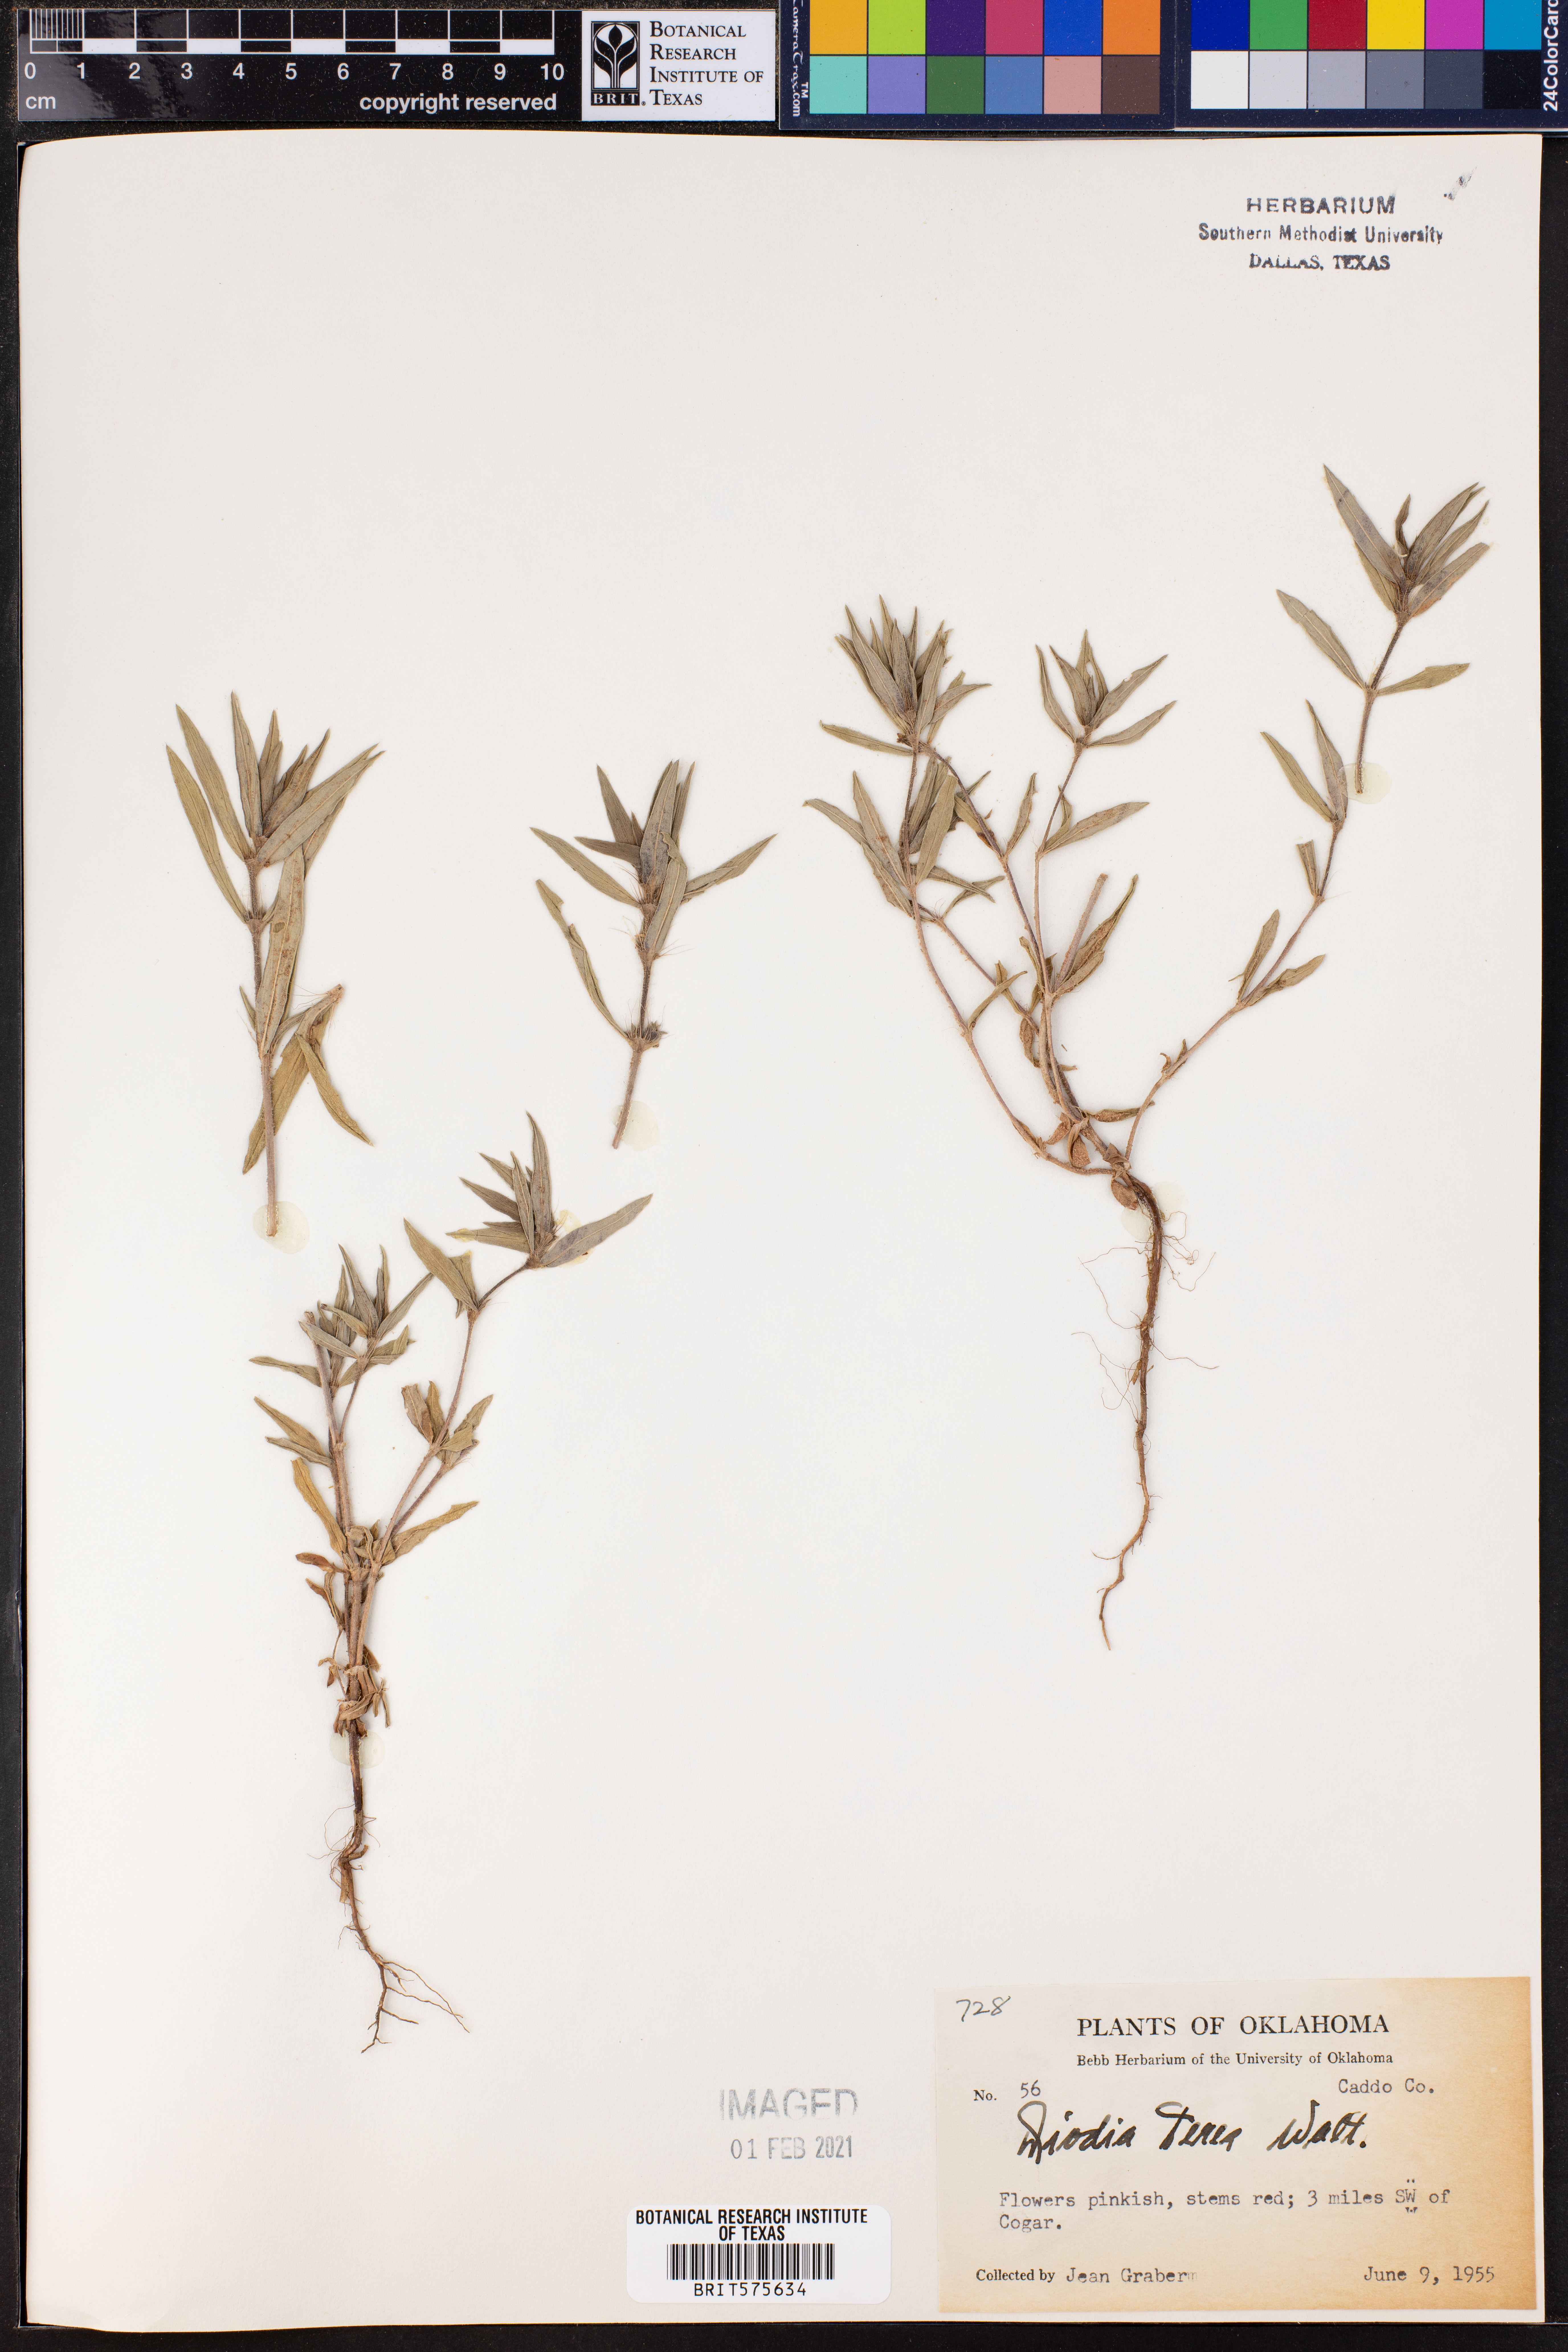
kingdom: Plantae
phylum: Tracheophyta
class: Magnoliopsida
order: Gentianales
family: Rubiaceae
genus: Hexasepalum
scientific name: Hexasepalum teres
